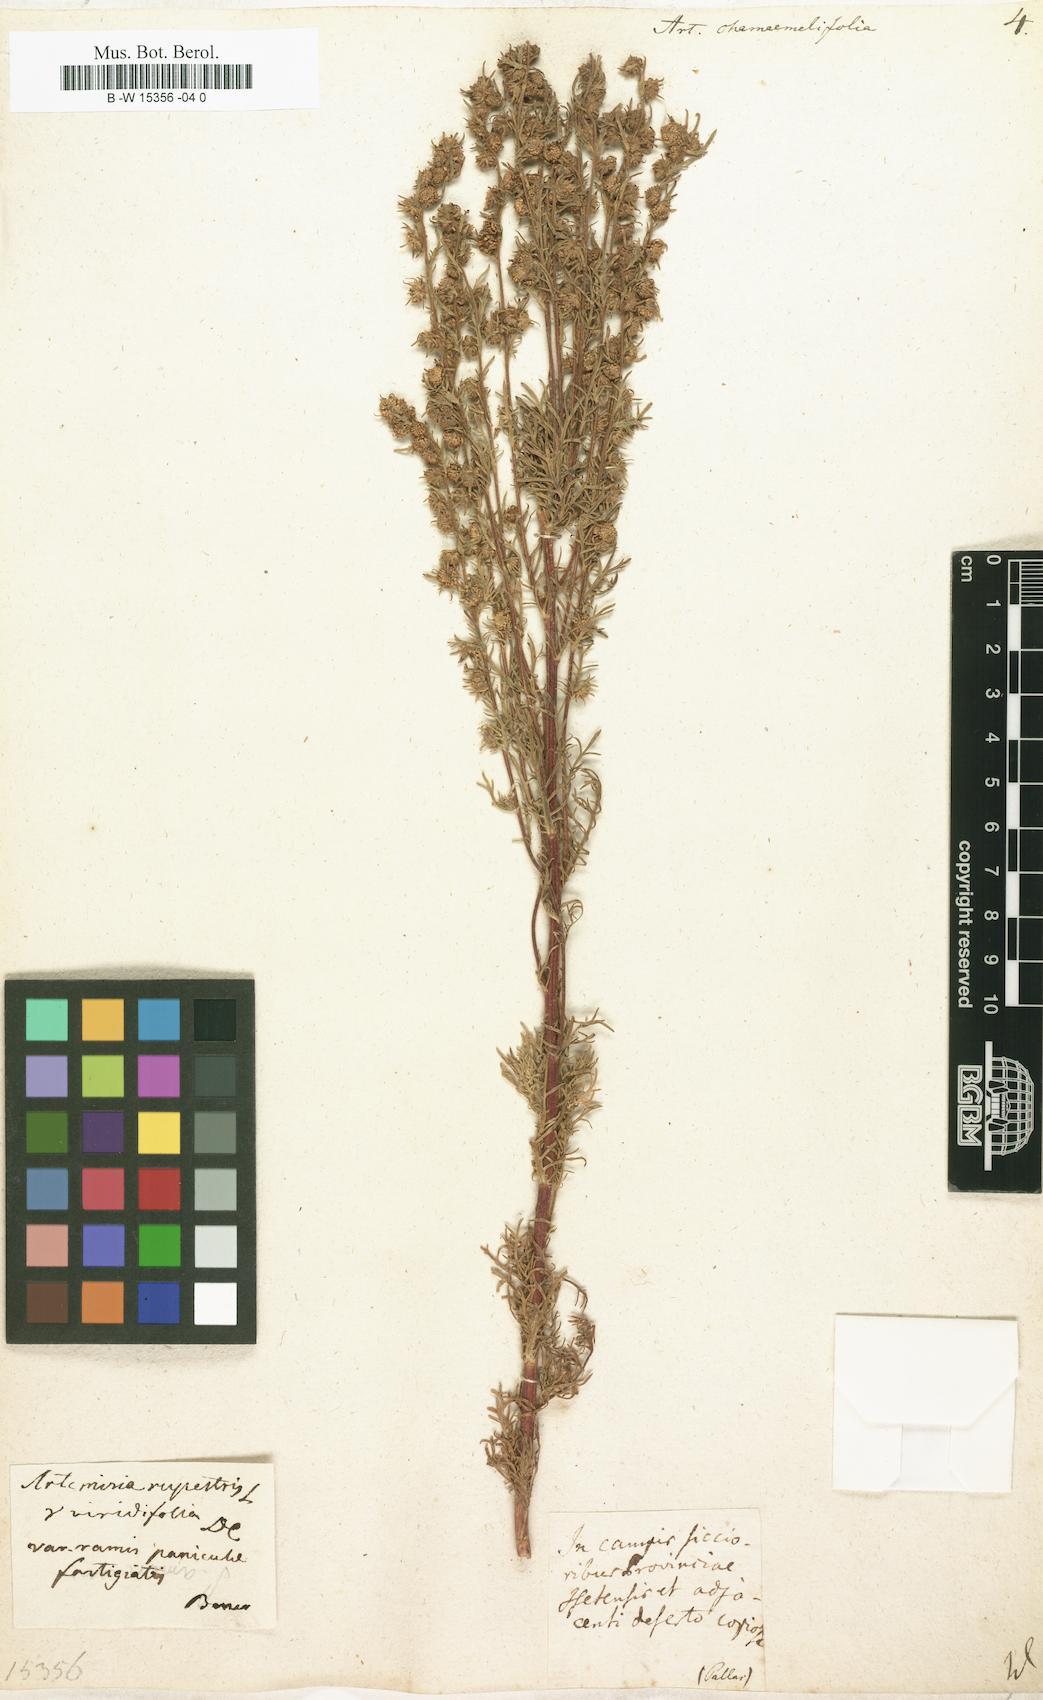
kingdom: Plantae
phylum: Tracheophyta
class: Magnoliopsida
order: Asterales
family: Asteraceae
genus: Artemisia
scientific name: Artemisia chamaemelifolia
